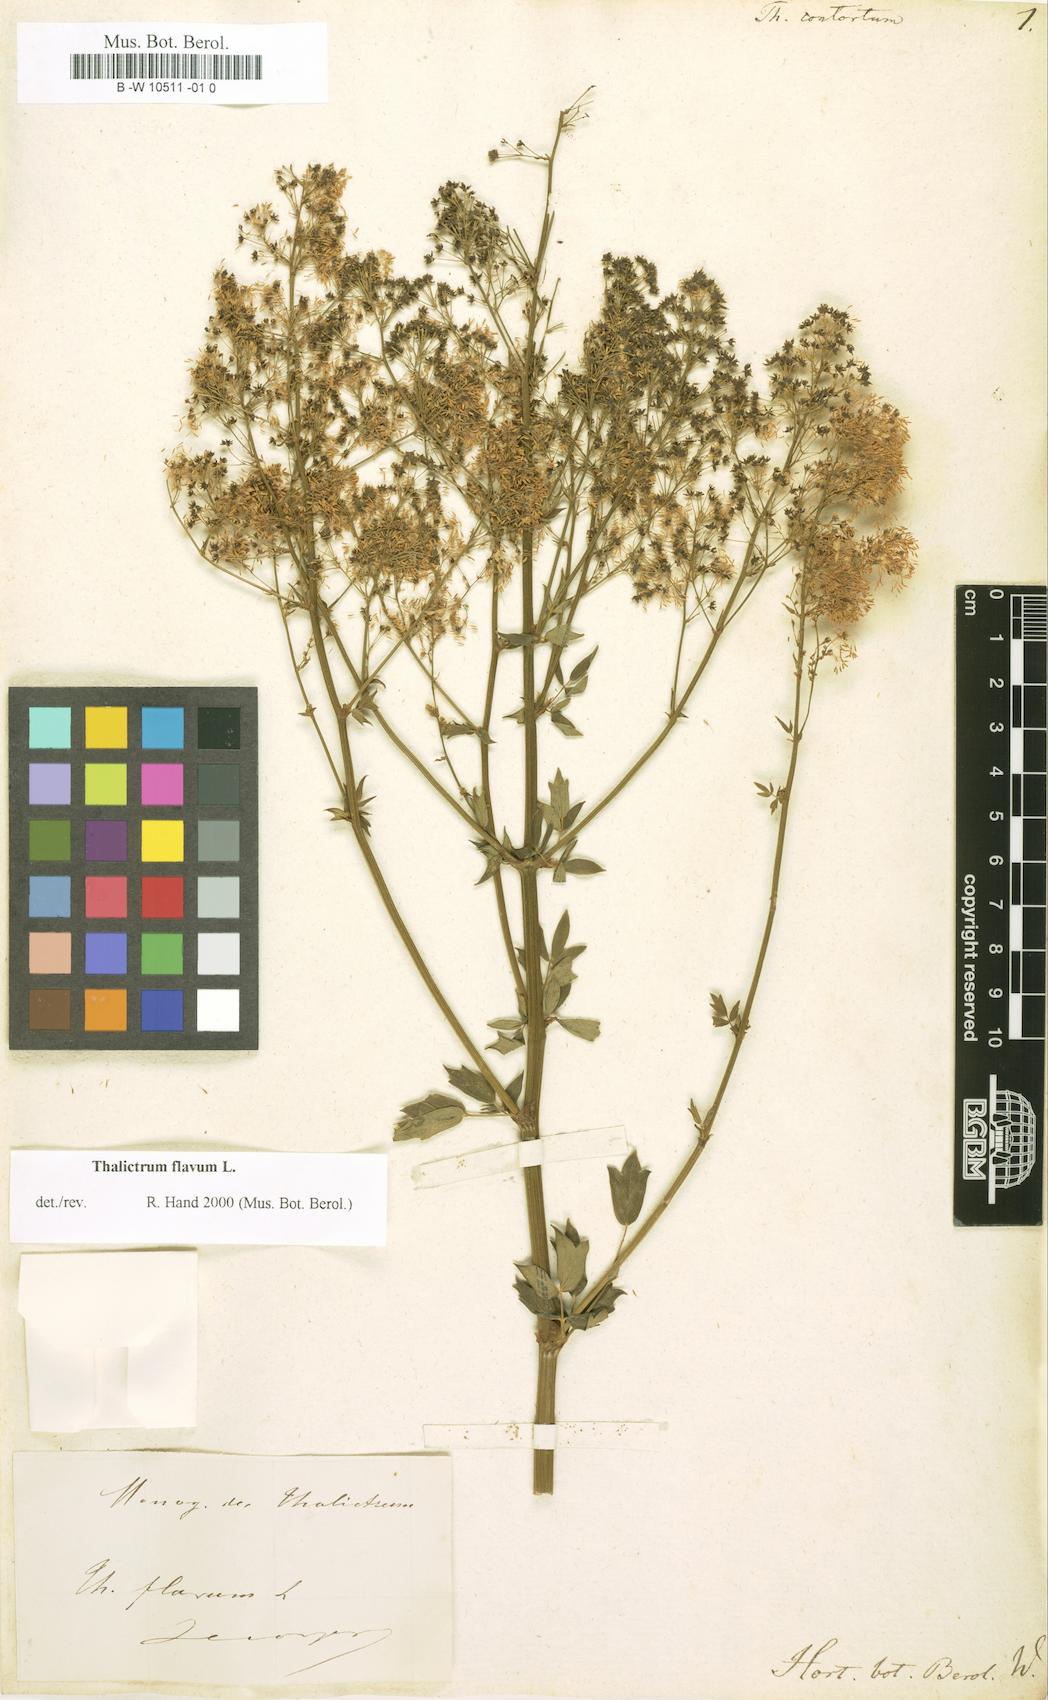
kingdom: Plantae
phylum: Tracheophyta
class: Magnoliopsida
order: Ranunculales
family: Ranunculaceae
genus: Thalictrum
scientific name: Thalictrum aquilegiifolium
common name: French meadow-rue
